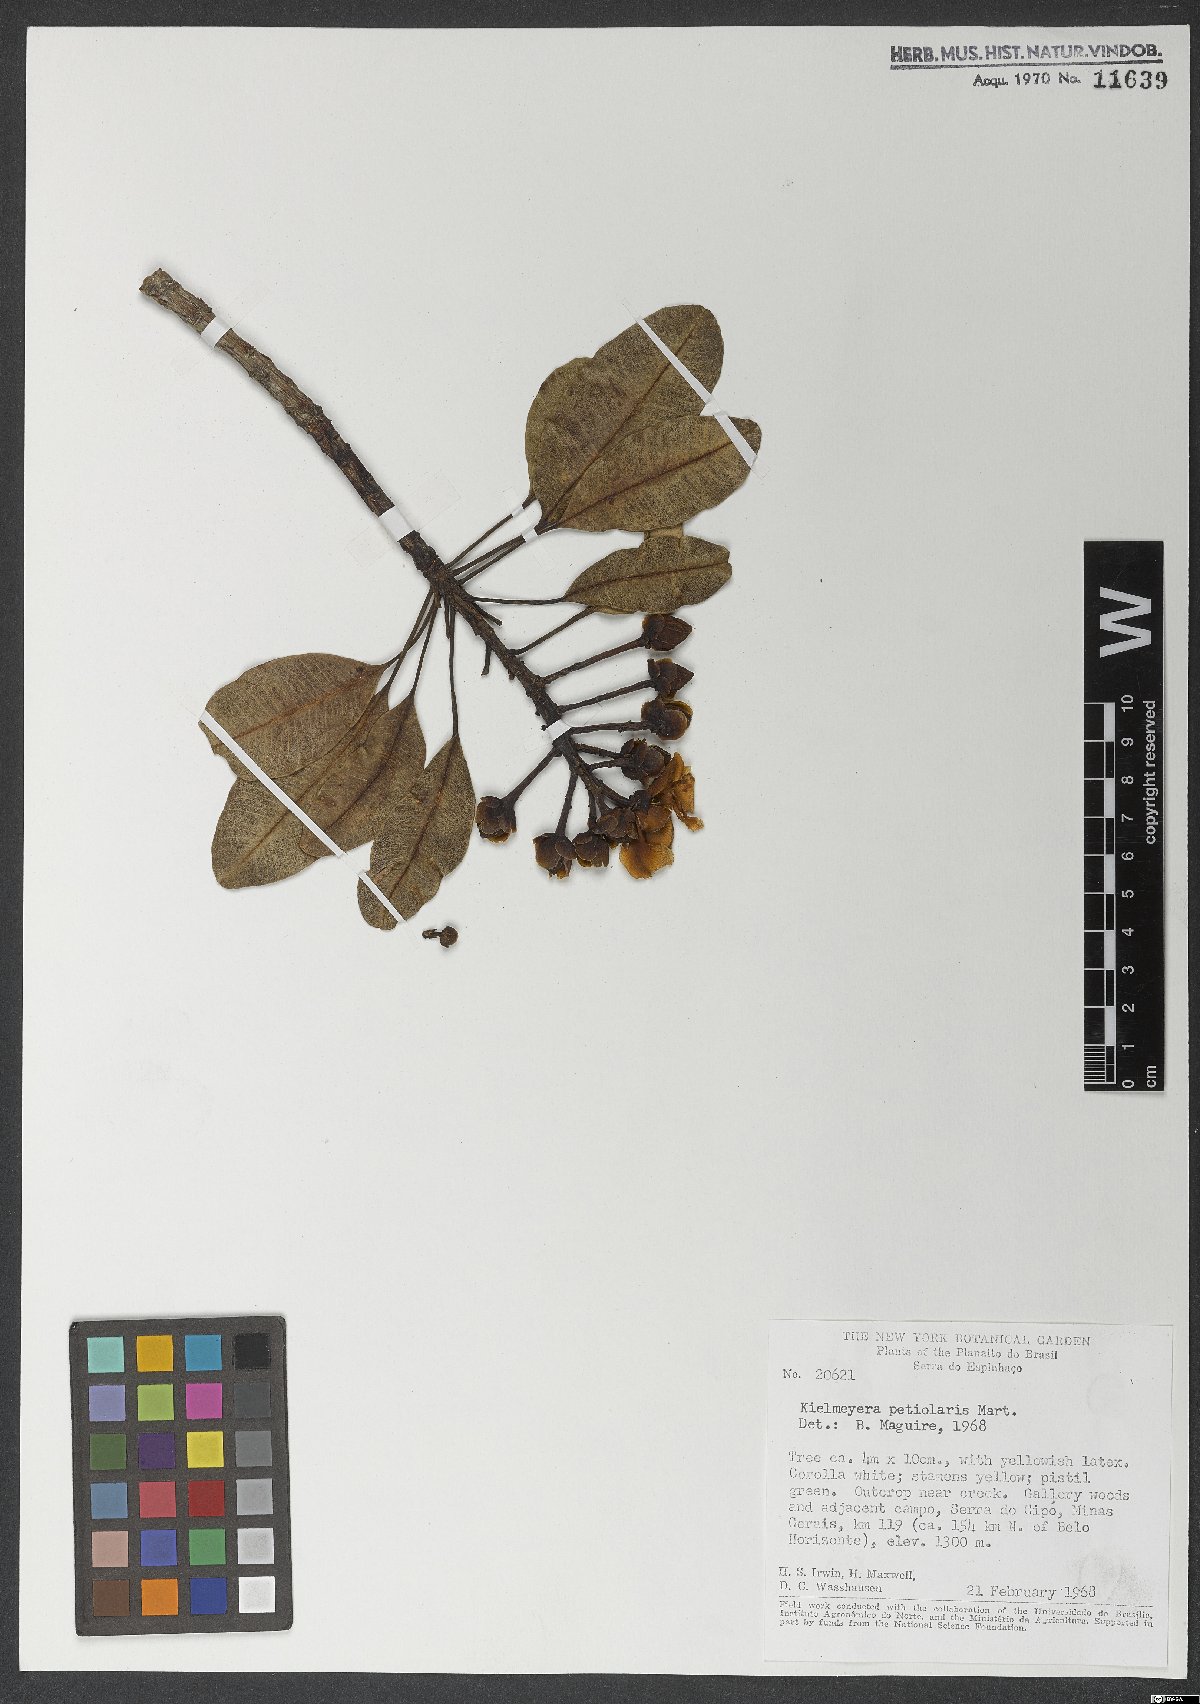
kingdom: Plantae
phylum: Tracheophyta
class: Magnoliopsida
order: Malpighiales
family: Calophyllaceae
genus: Kielmeyera
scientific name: Kielmeyera petiolaris
